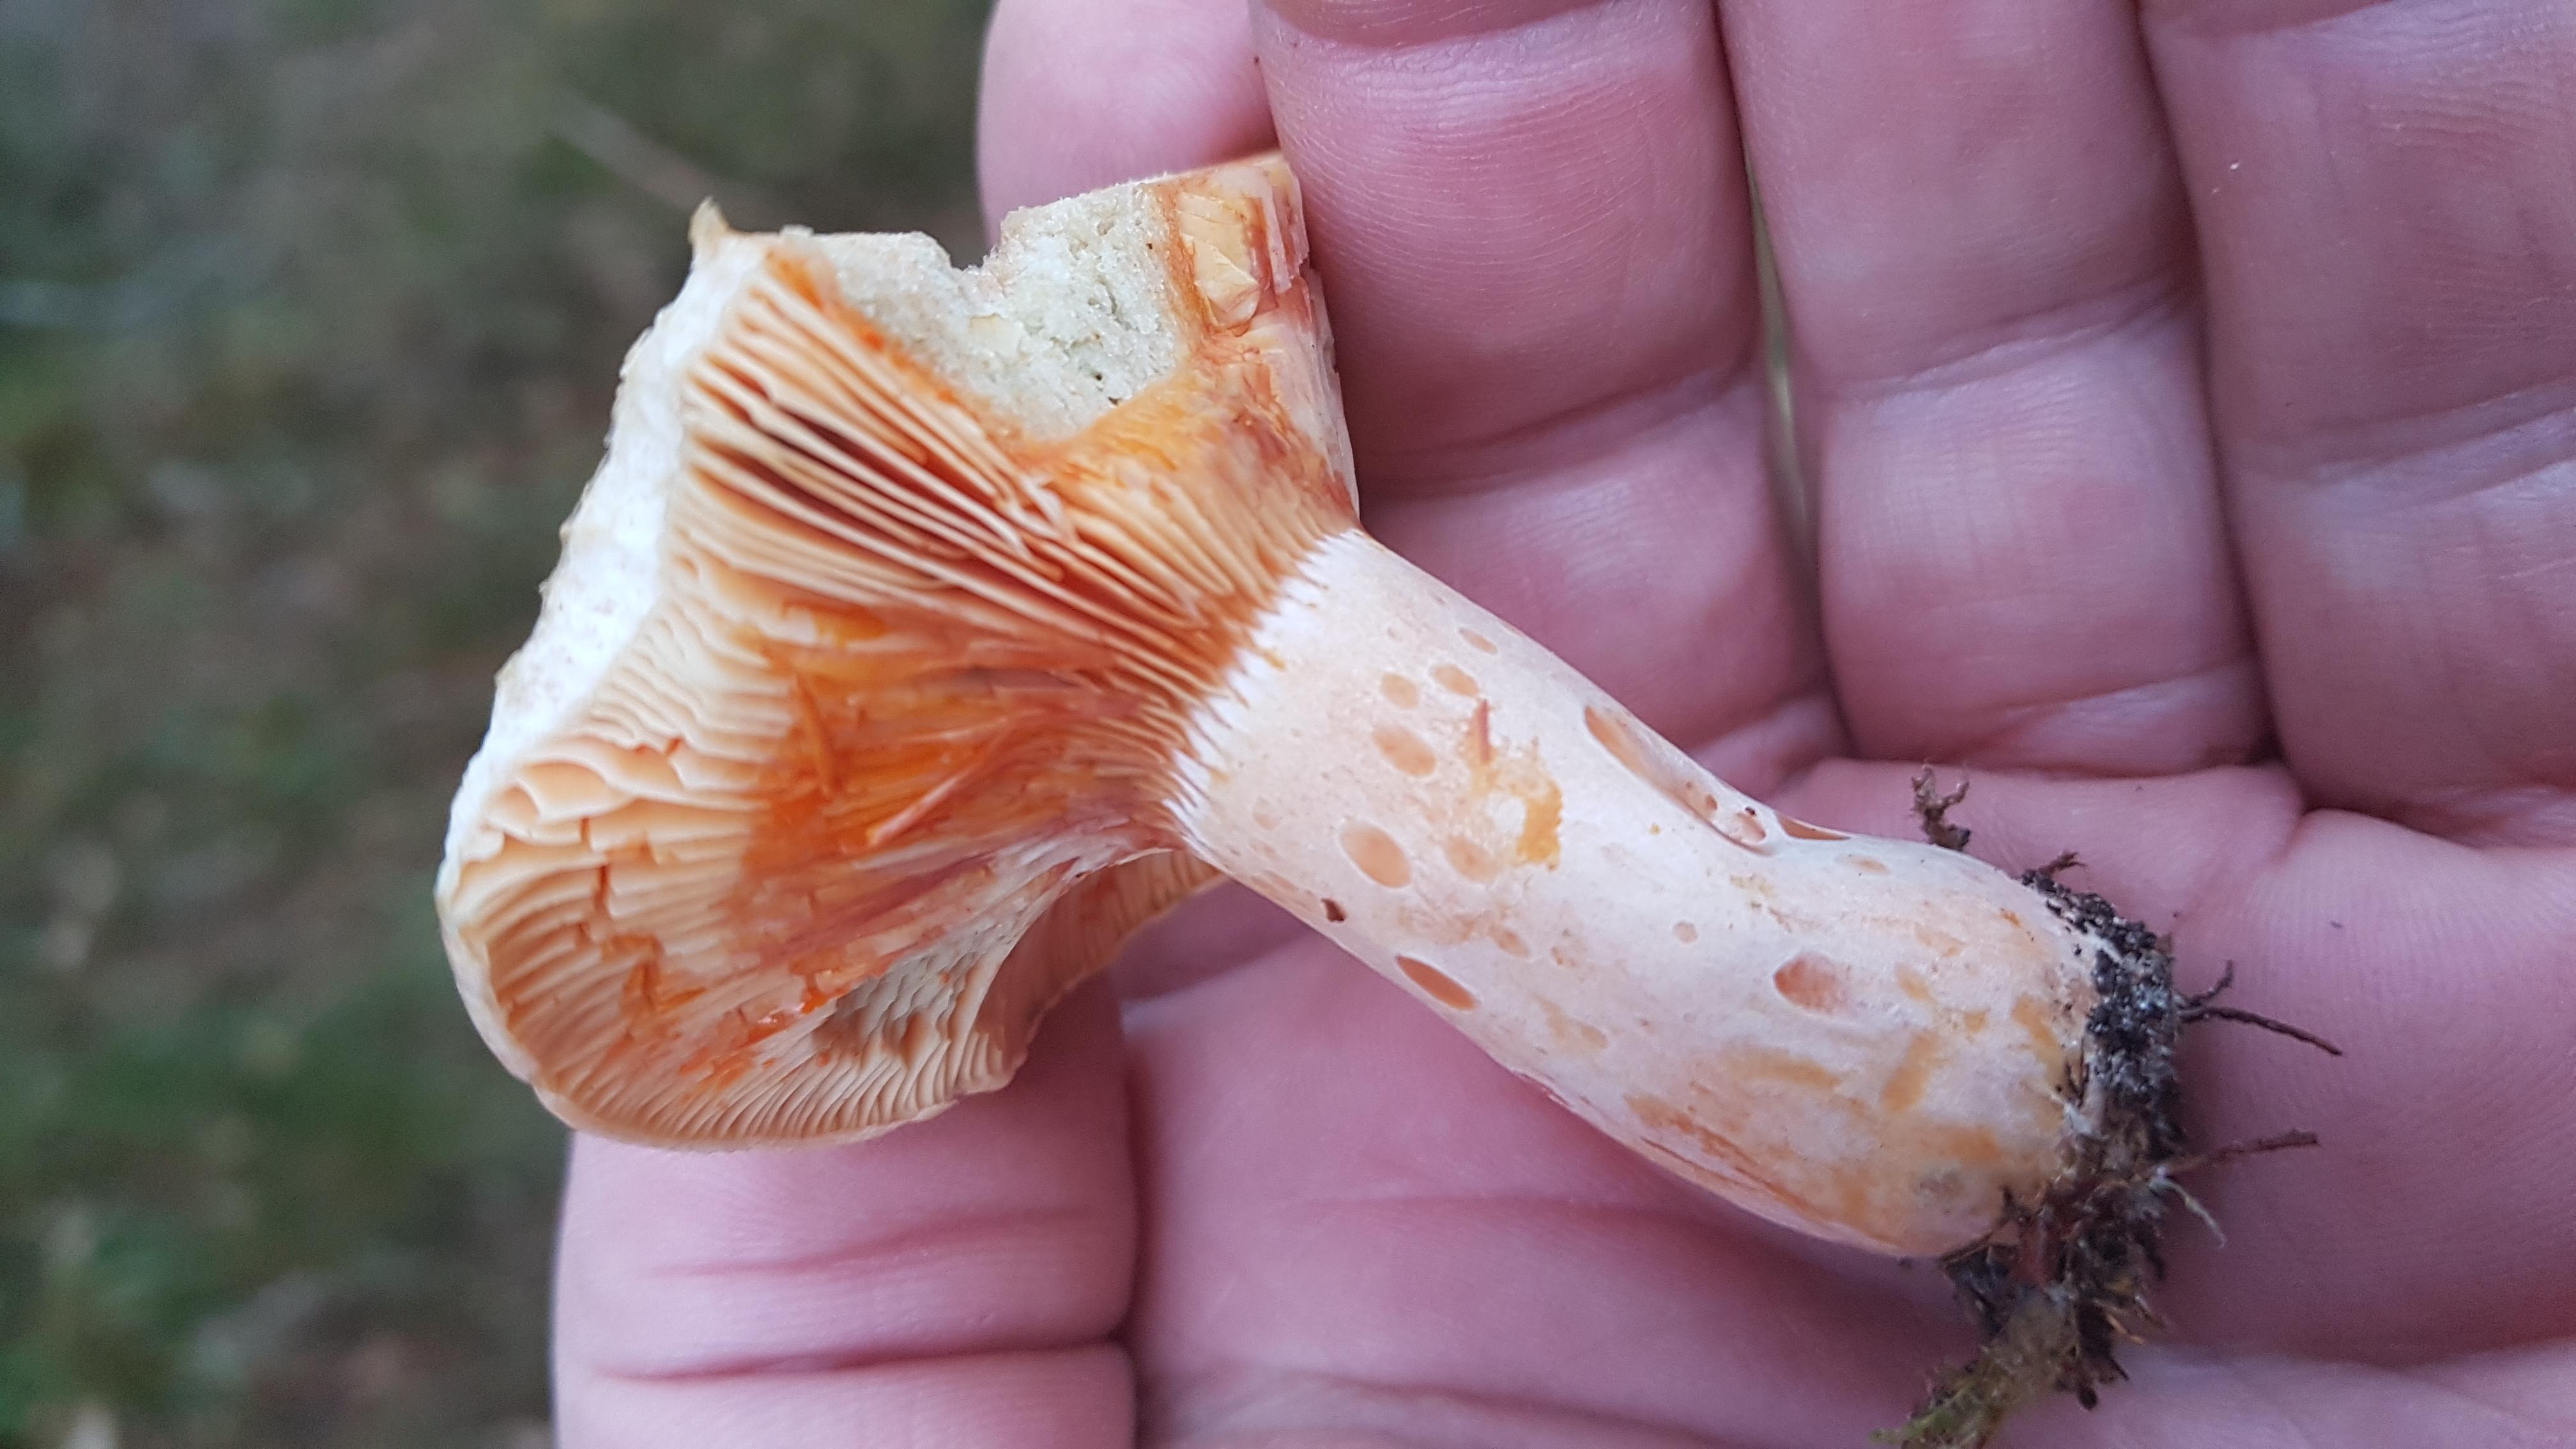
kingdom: Fungi
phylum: Basidiomycota
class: Agaricomycetes
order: Russulales
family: Russulaceae
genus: Lactarius
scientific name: Lactarius deliciosus
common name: velsmagende mælkehat
